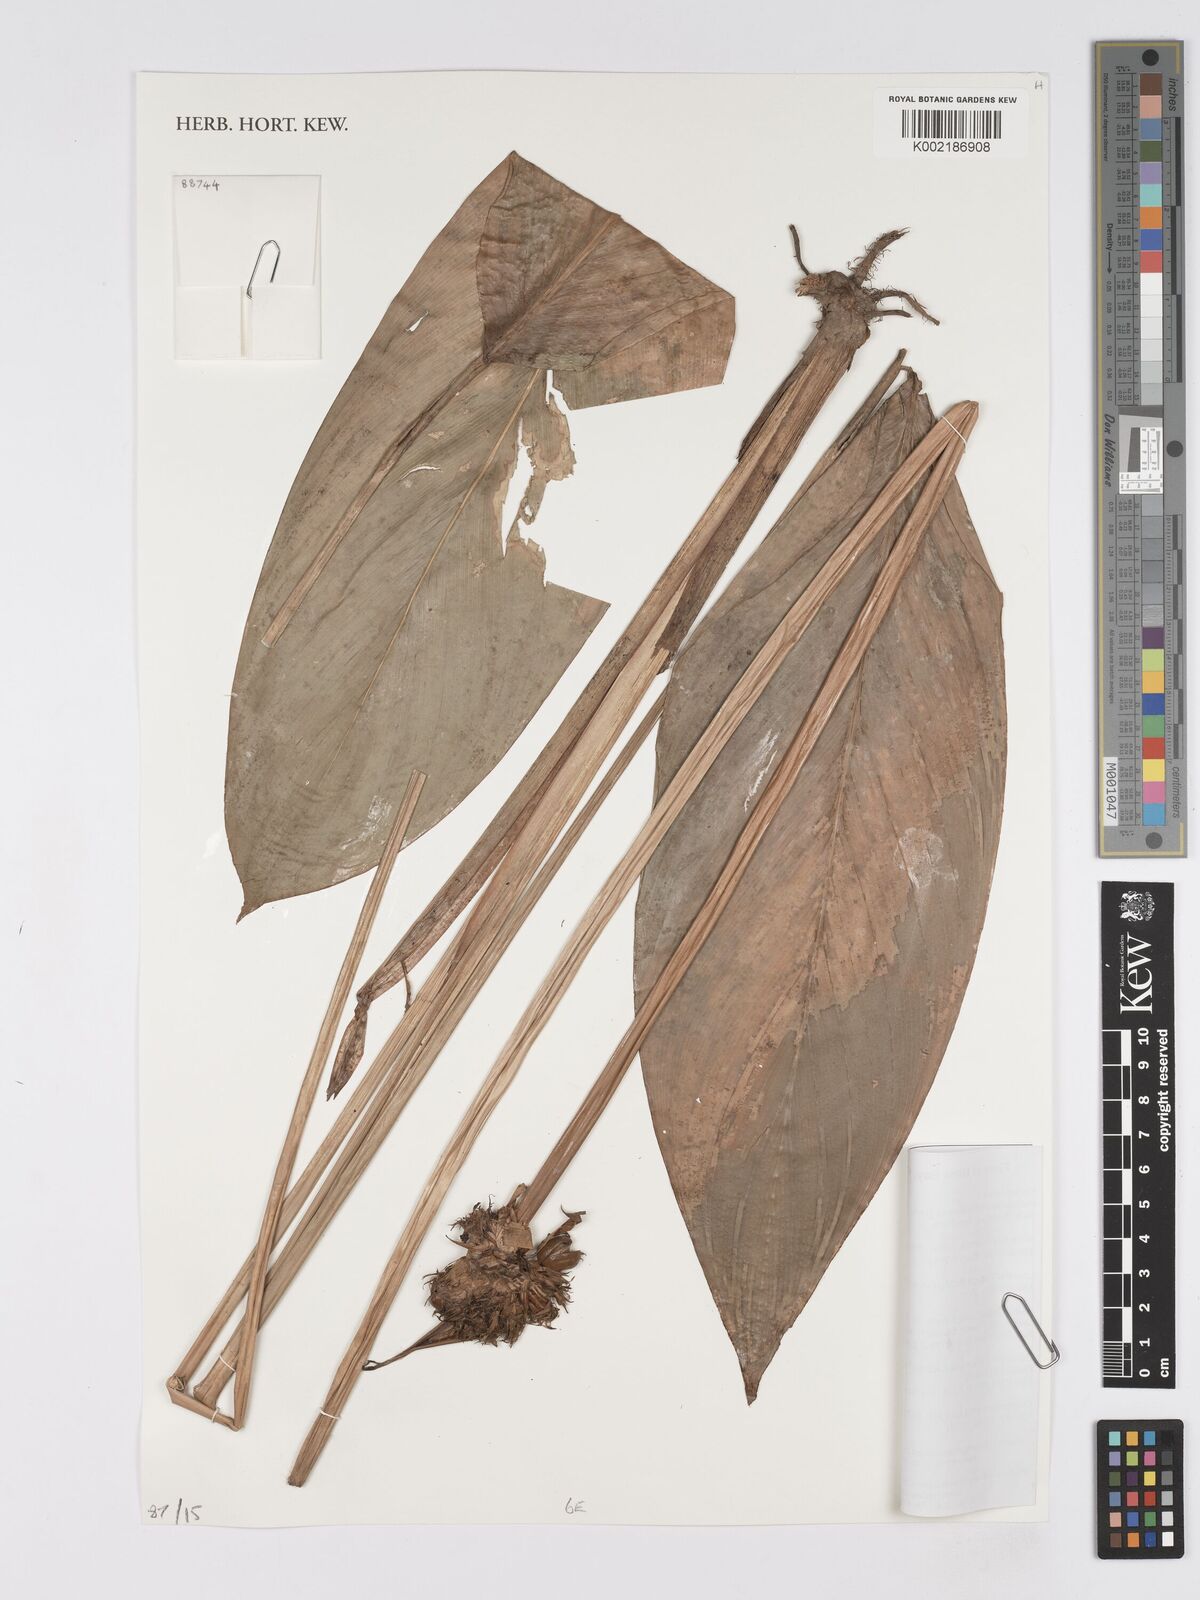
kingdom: Plantae
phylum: Tracheophyta
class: Liliopsida
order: Zingiberales
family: Marantaceae
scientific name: Marantaceae
